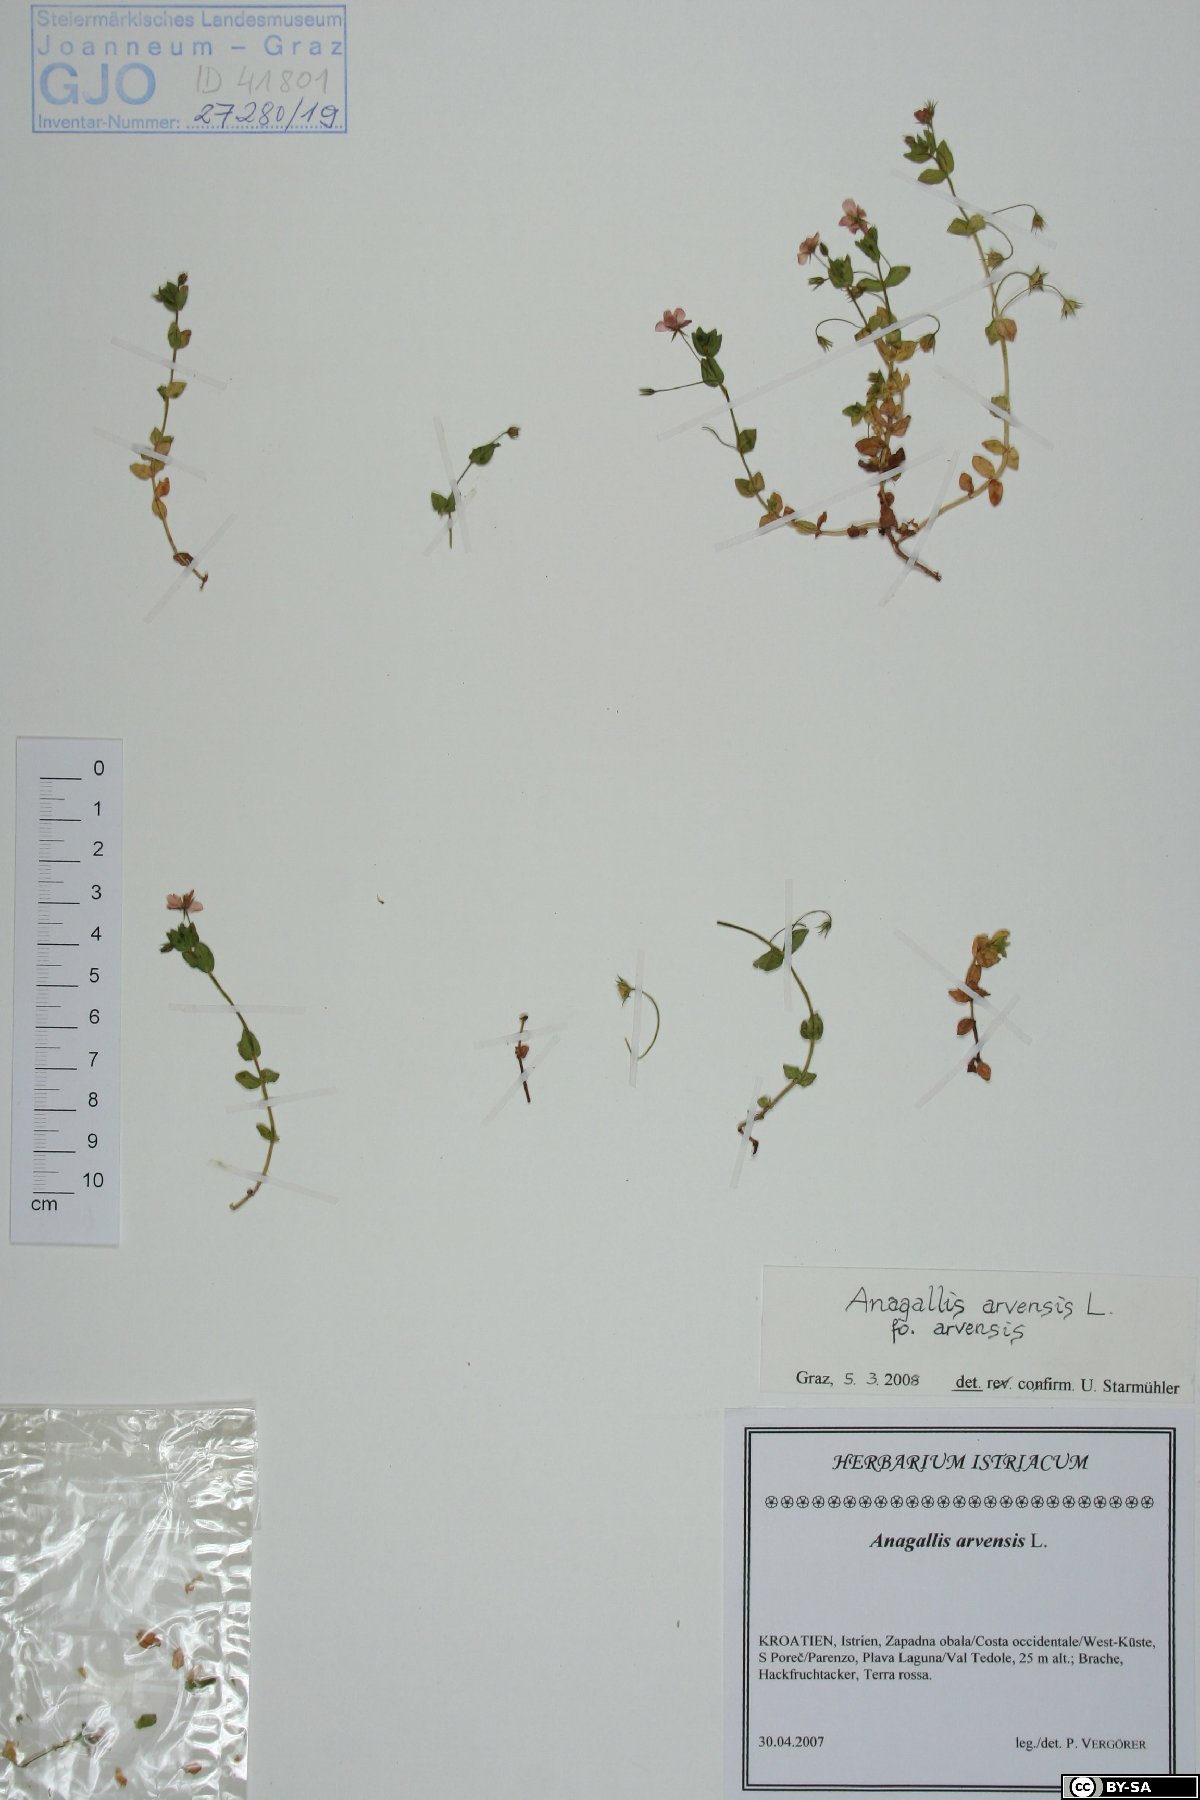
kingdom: Plantae
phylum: Tracheophyta
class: Magnoliopsida
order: Ericales
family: Primulaceae
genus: Lysimachia
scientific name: Lysimachia arvensis
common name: Scarlet pimpernel
